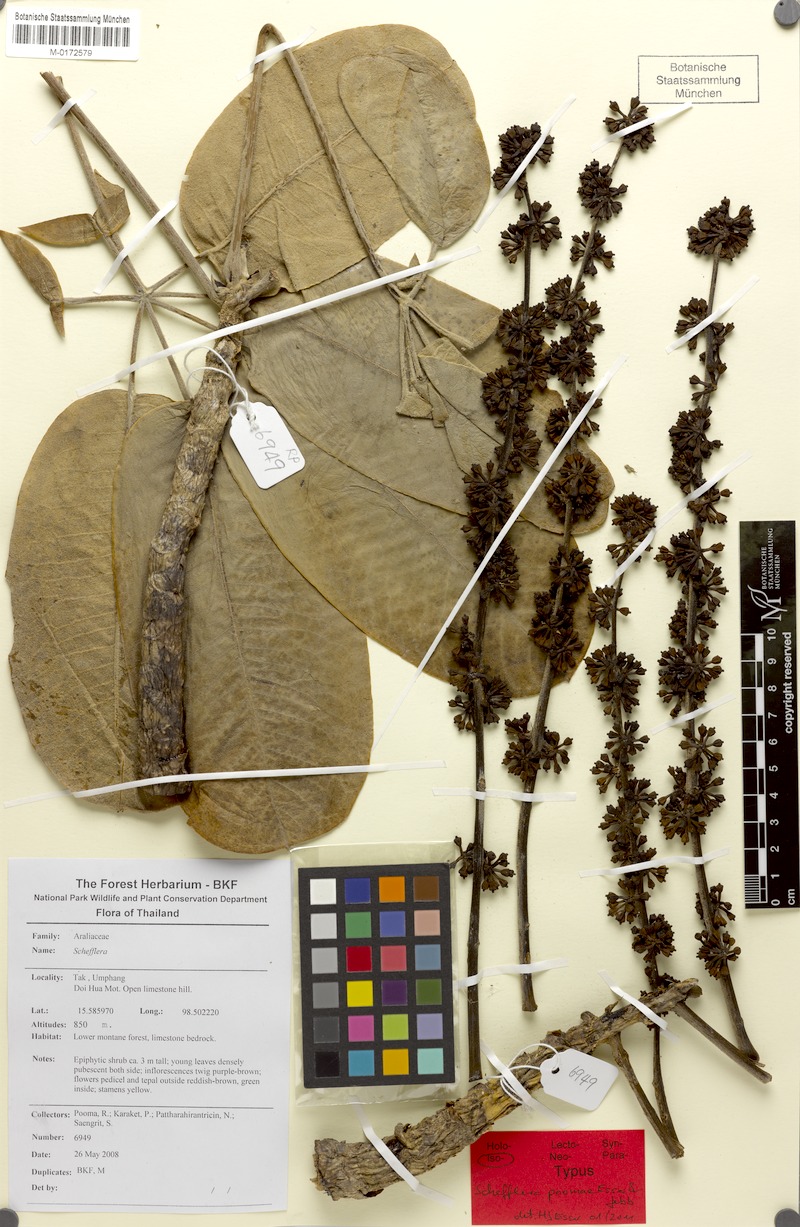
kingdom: Plantae
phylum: Tracheophyta
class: Magnoliopsida
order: Apiales
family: Araliaceae
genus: Heptapleurum
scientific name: Heptapleurum poomae
